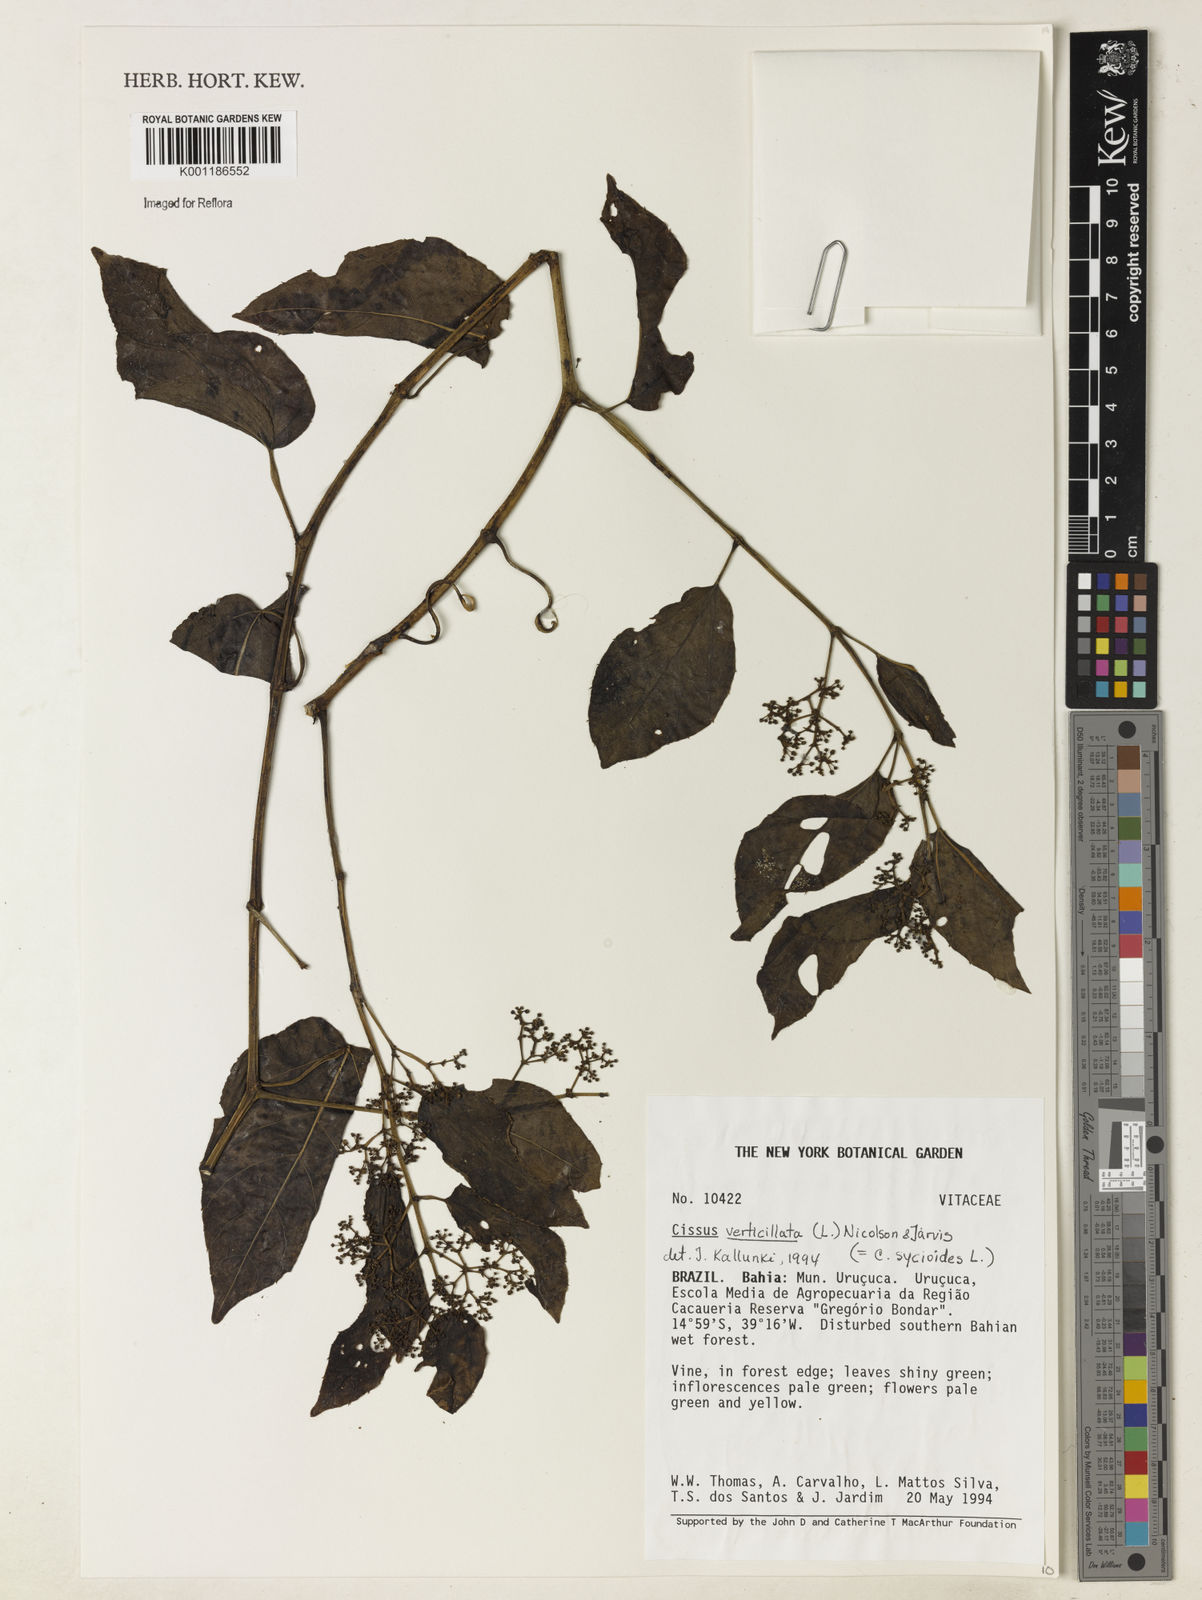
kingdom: Plantae
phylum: Tracheophyta
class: Magnoliopsida
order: Vitales
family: Vitaceae
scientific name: Vitaceae
